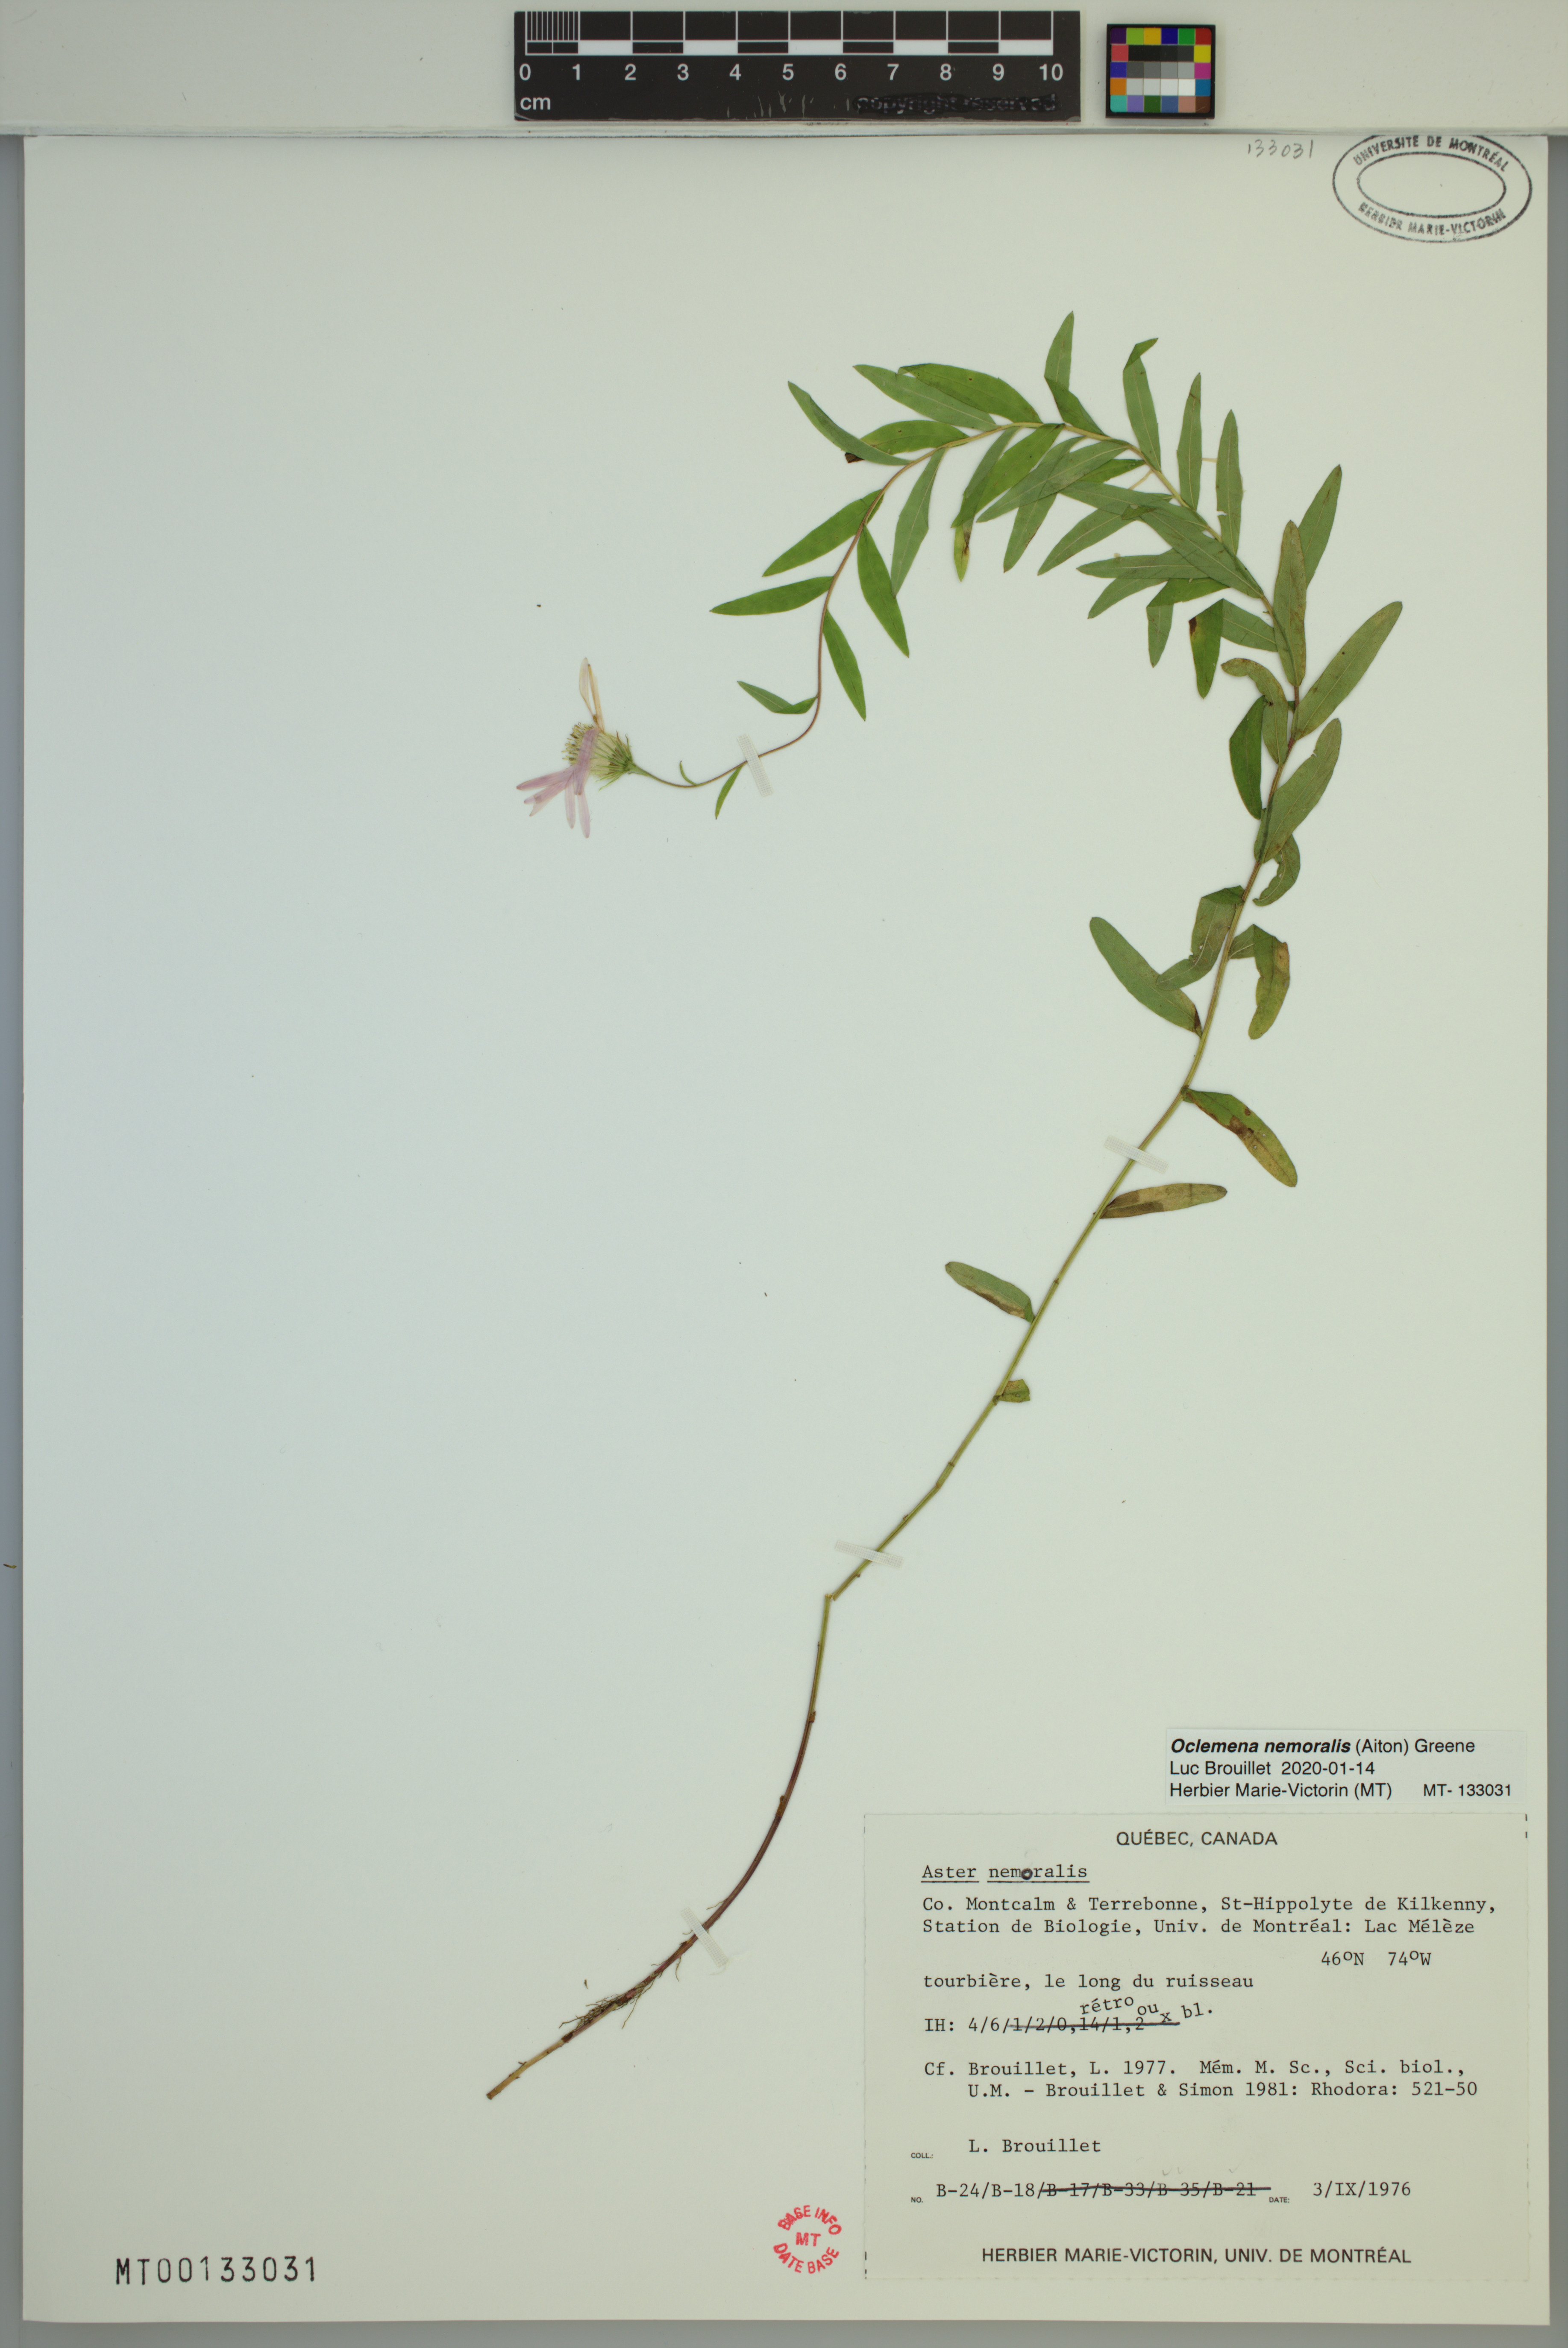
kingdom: Plantae
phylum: Tracheophyta
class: Magnoliopsida
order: Asterales
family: Asteraceae
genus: Oclemena
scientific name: Oclemena nemoralis
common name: Bog aster
